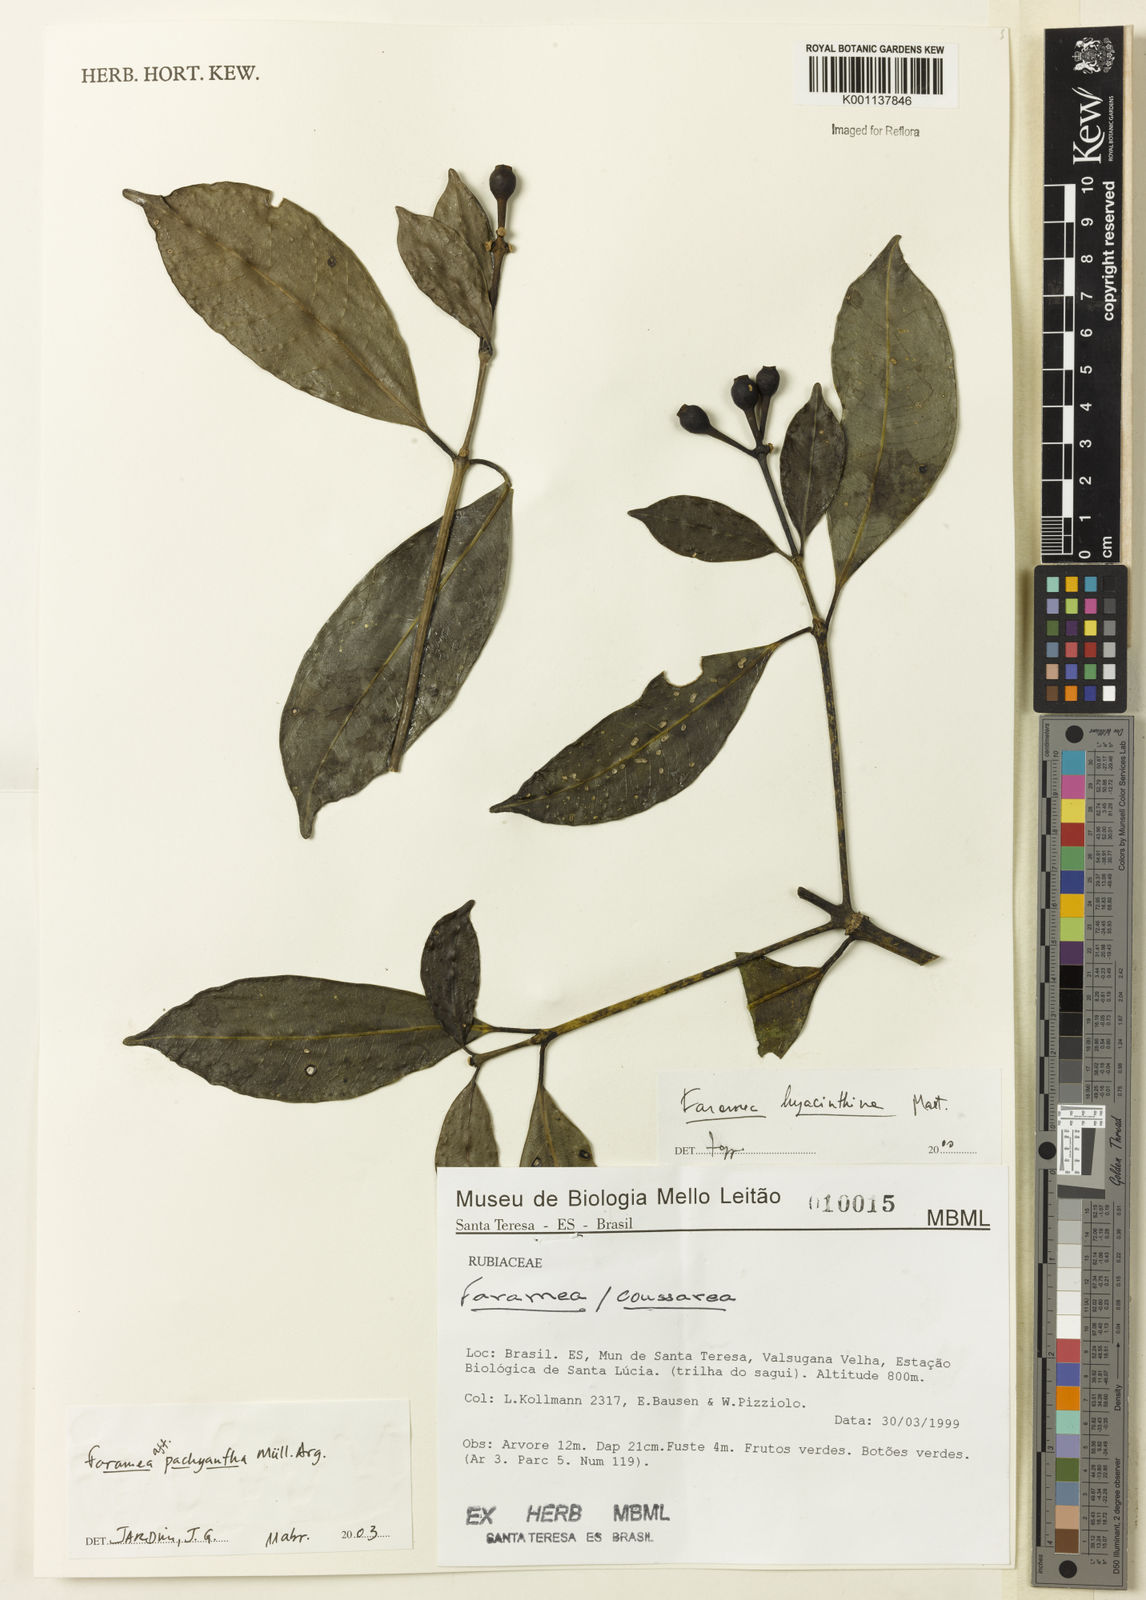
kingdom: Plantae
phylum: Tracheophyta
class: Magnoliopsida
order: Gentianales
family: Rubiaceae
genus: Faramea
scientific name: Faramea
